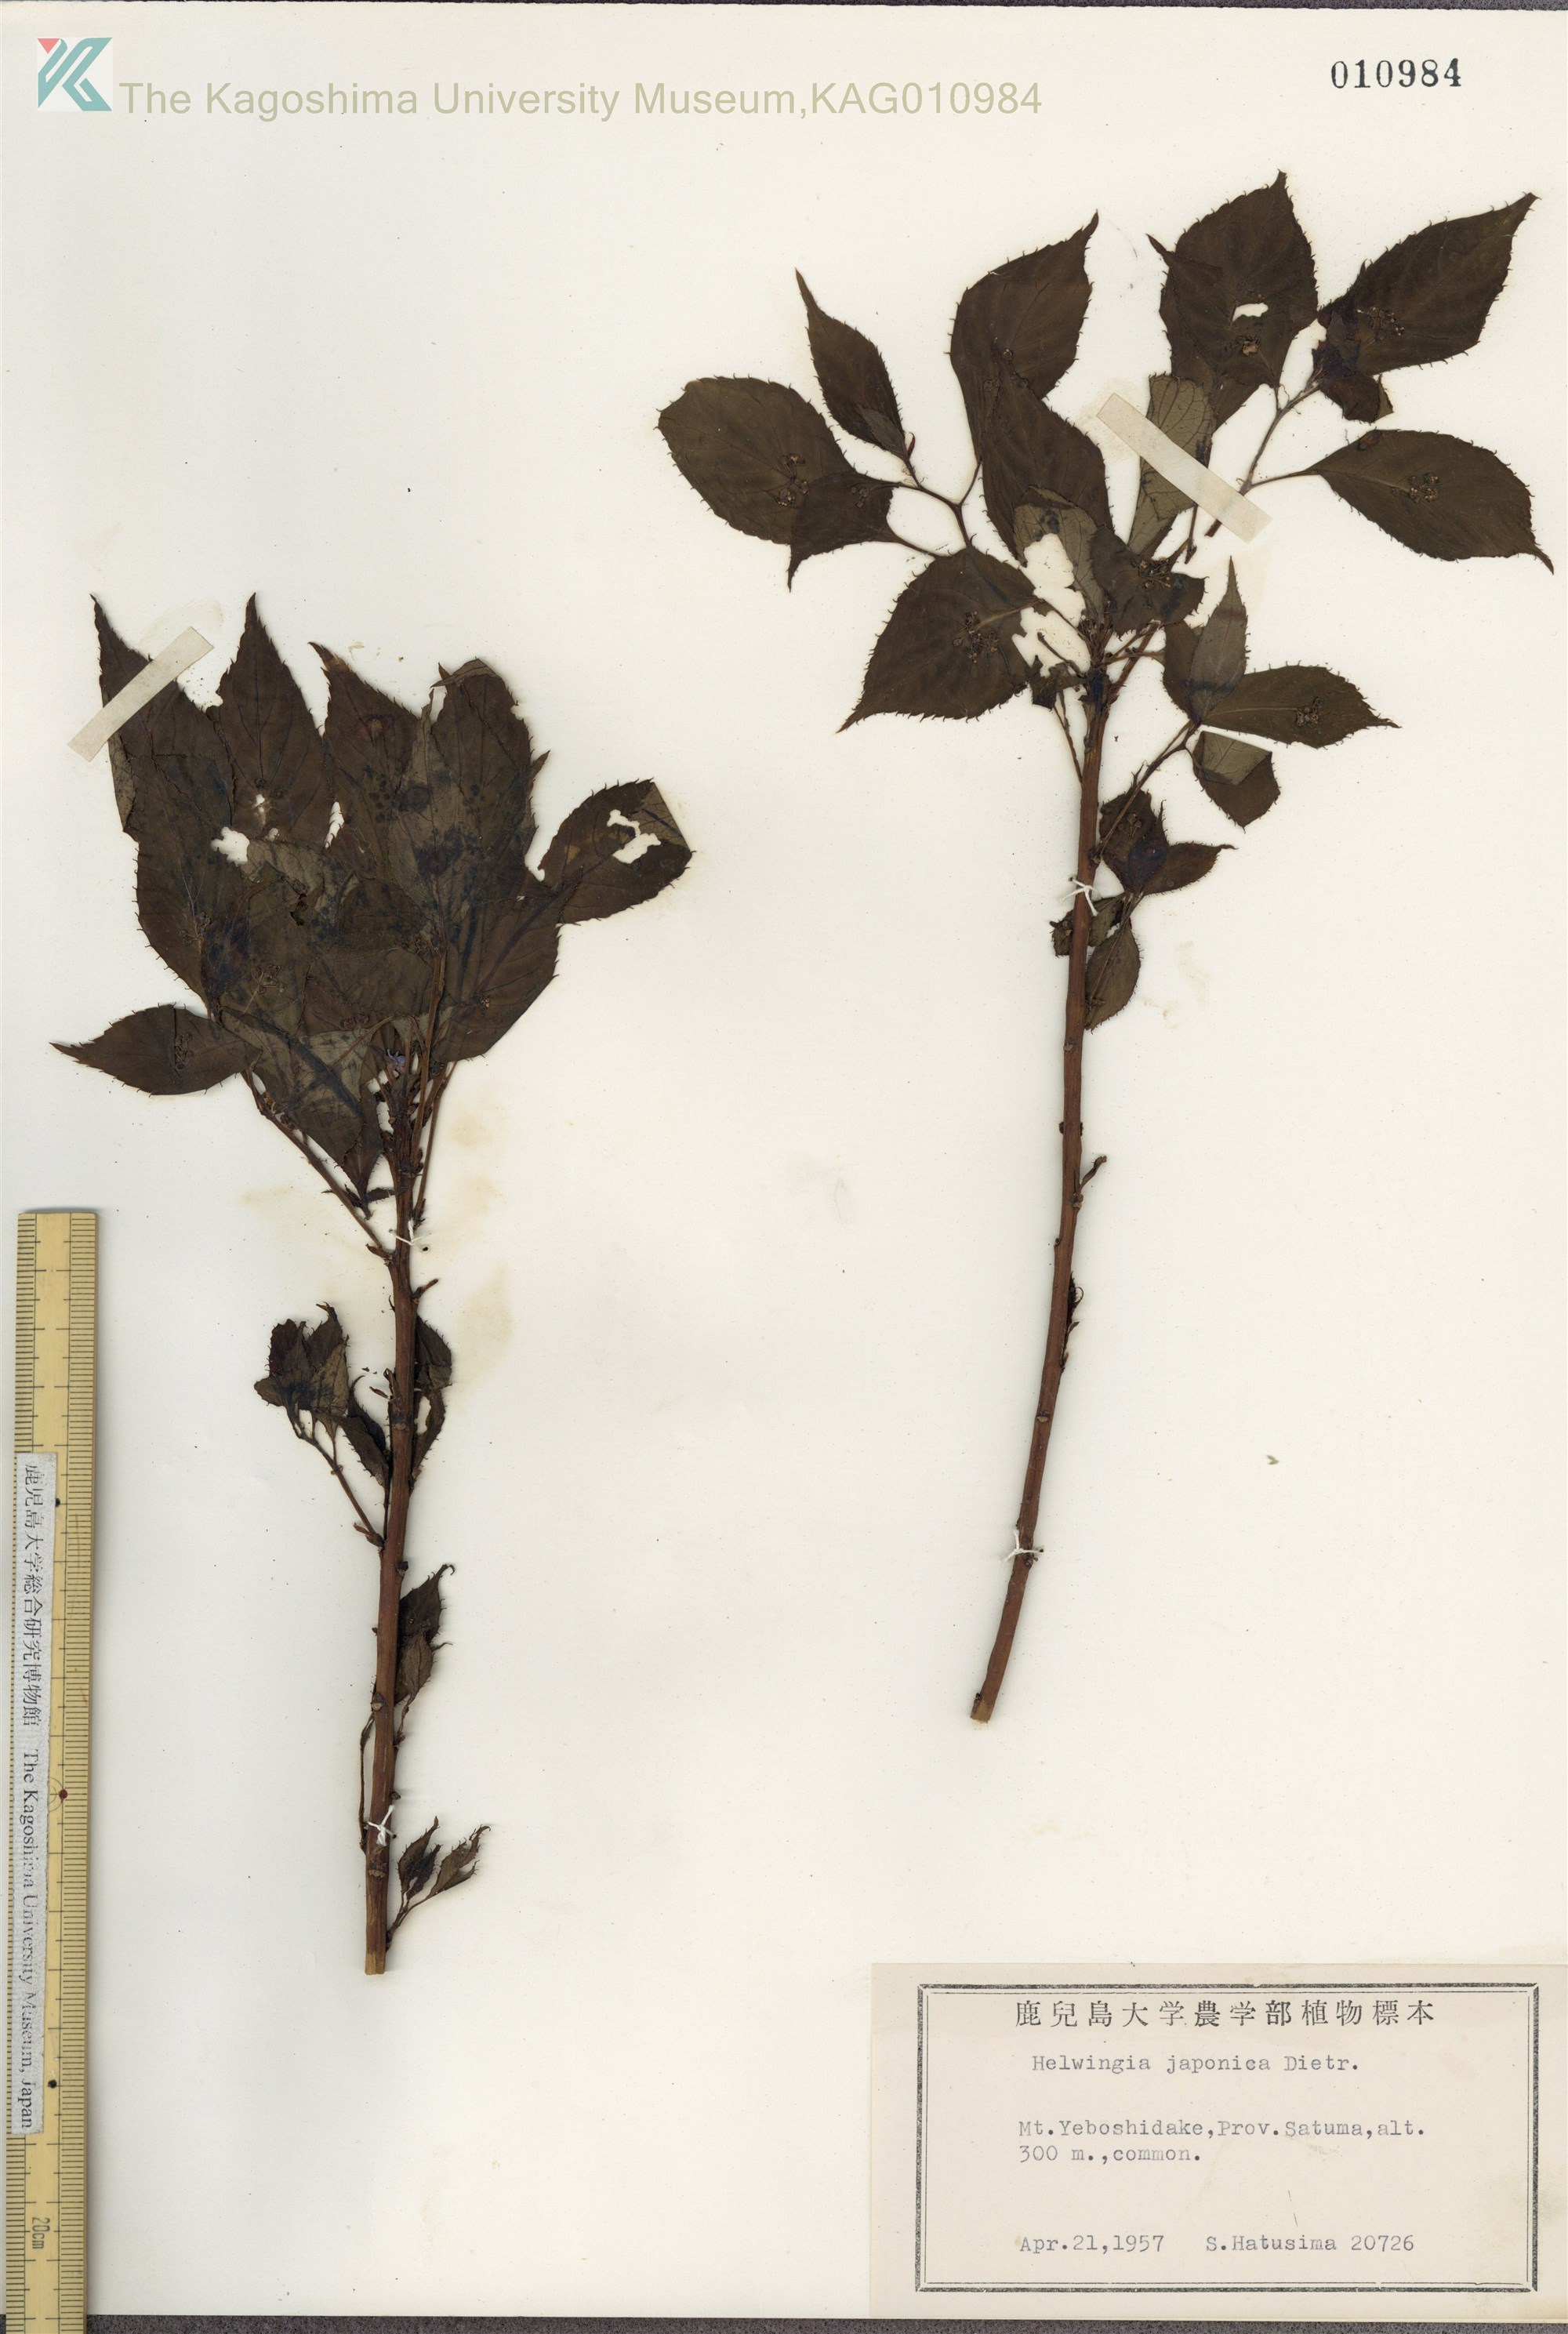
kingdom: Plantae
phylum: Tracheophyta
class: Magnoliopsida
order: Aquifoliales
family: Helwingiaceae
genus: Helwingia
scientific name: Helwingia japonica
